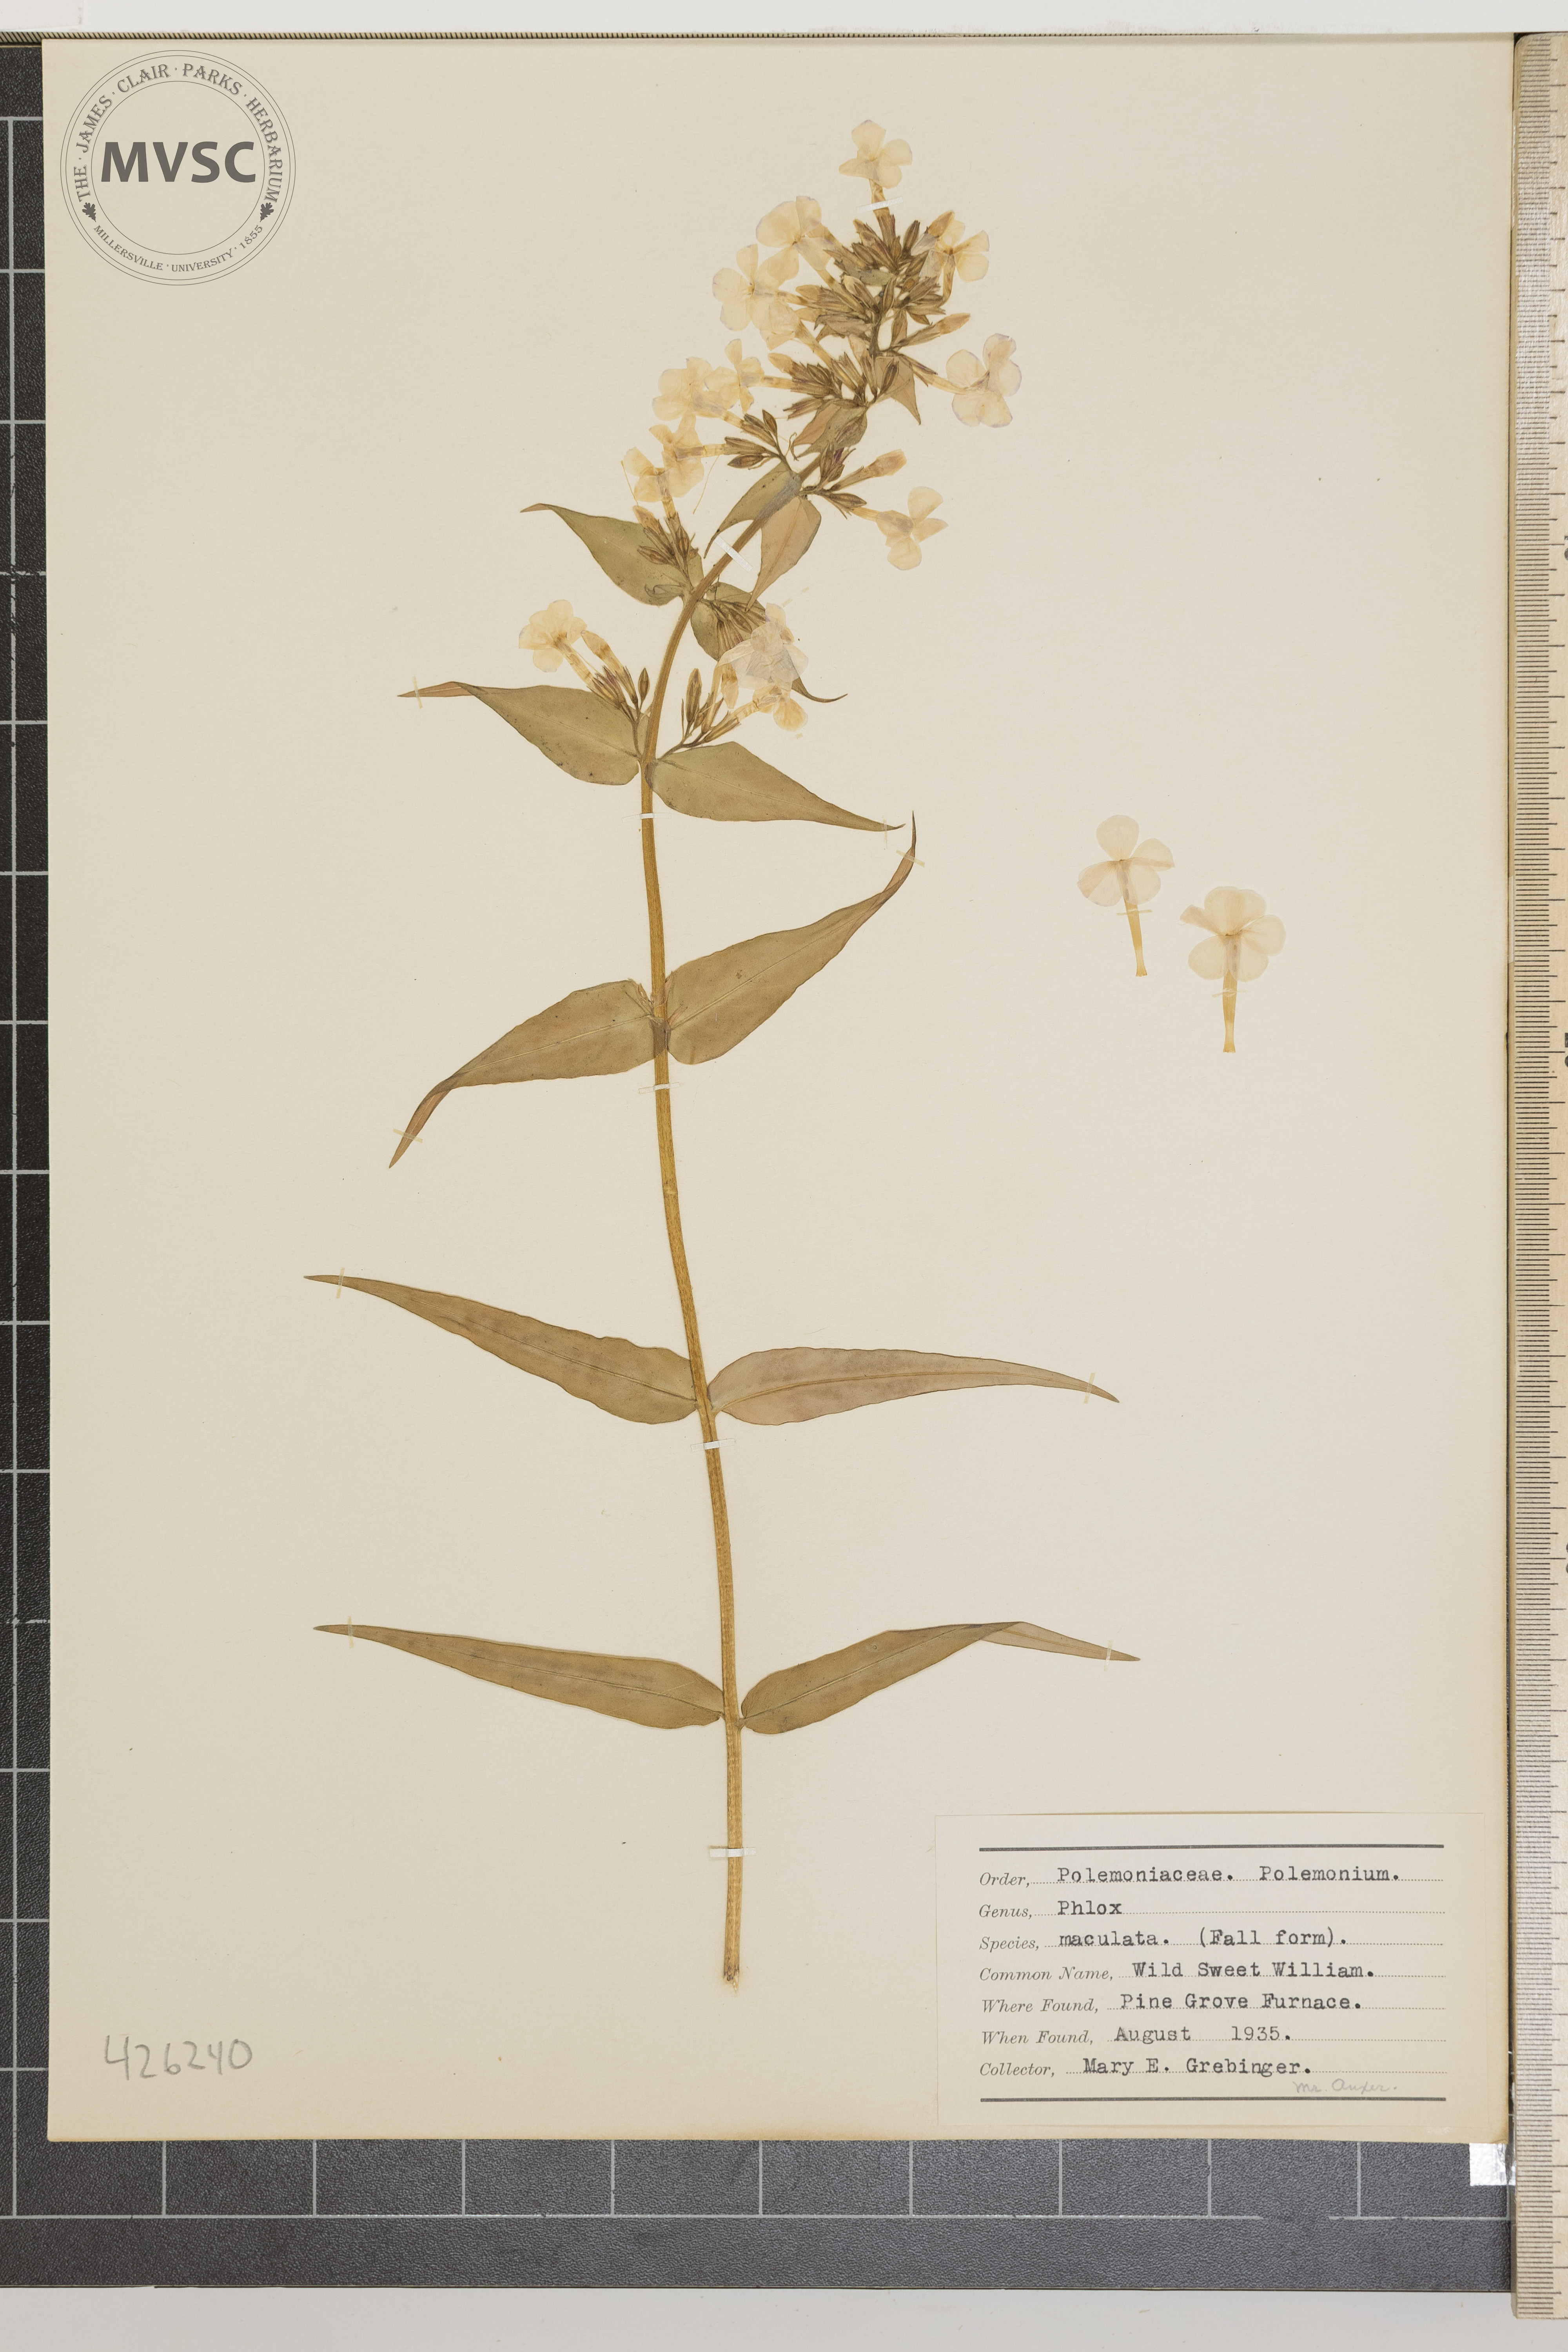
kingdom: Plantae
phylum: Tracheophyta
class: Magnoliopsida
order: Ericales
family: Polemoniaceae
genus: Phlox
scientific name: Phlox maculata
